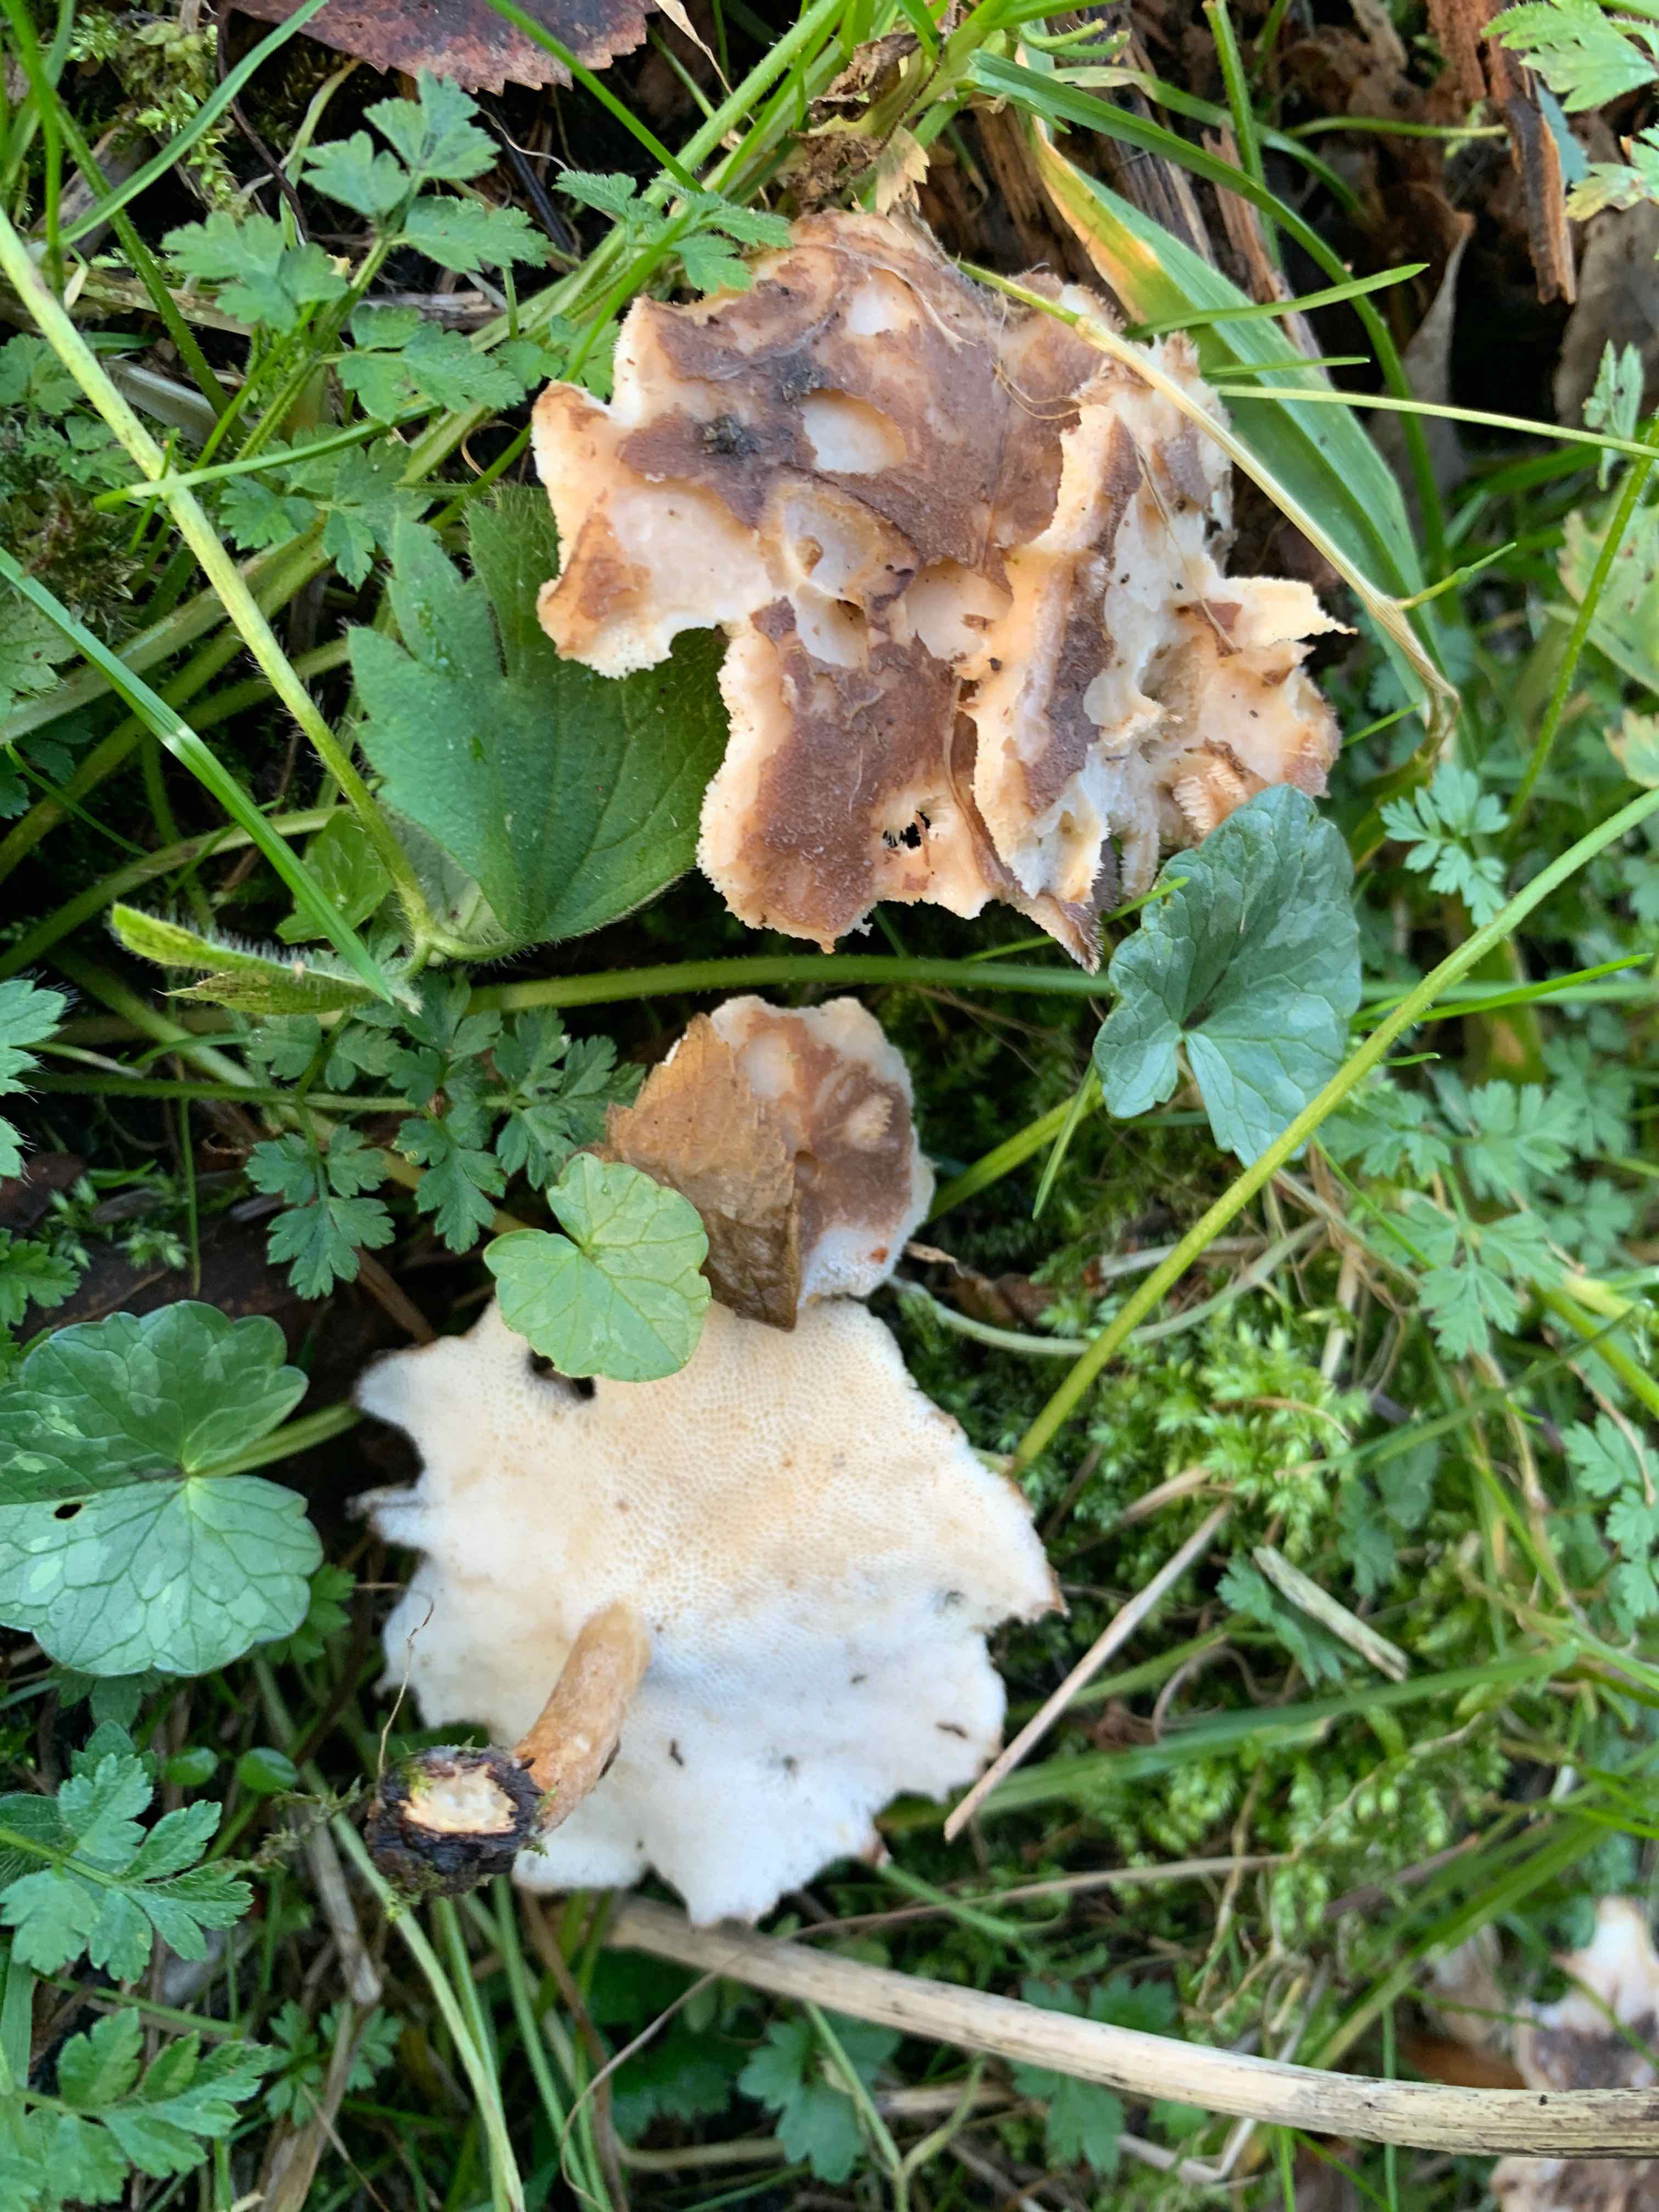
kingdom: Fungi
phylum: Basidiomycota
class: Agaricomycetes
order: Polyporales
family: Polyporaceae
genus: Lentinus
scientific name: Lentinus brumalis
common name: vinter-stilkporesvamp
